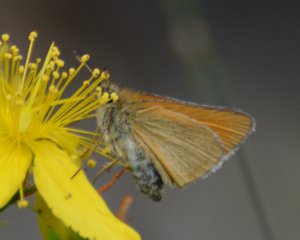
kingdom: Animalia
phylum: Arthropoda
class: Insecta
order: Lepidoptera
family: Hesperiidae
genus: Thymelicus
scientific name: Thymelicus lineola
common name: European Skipper
